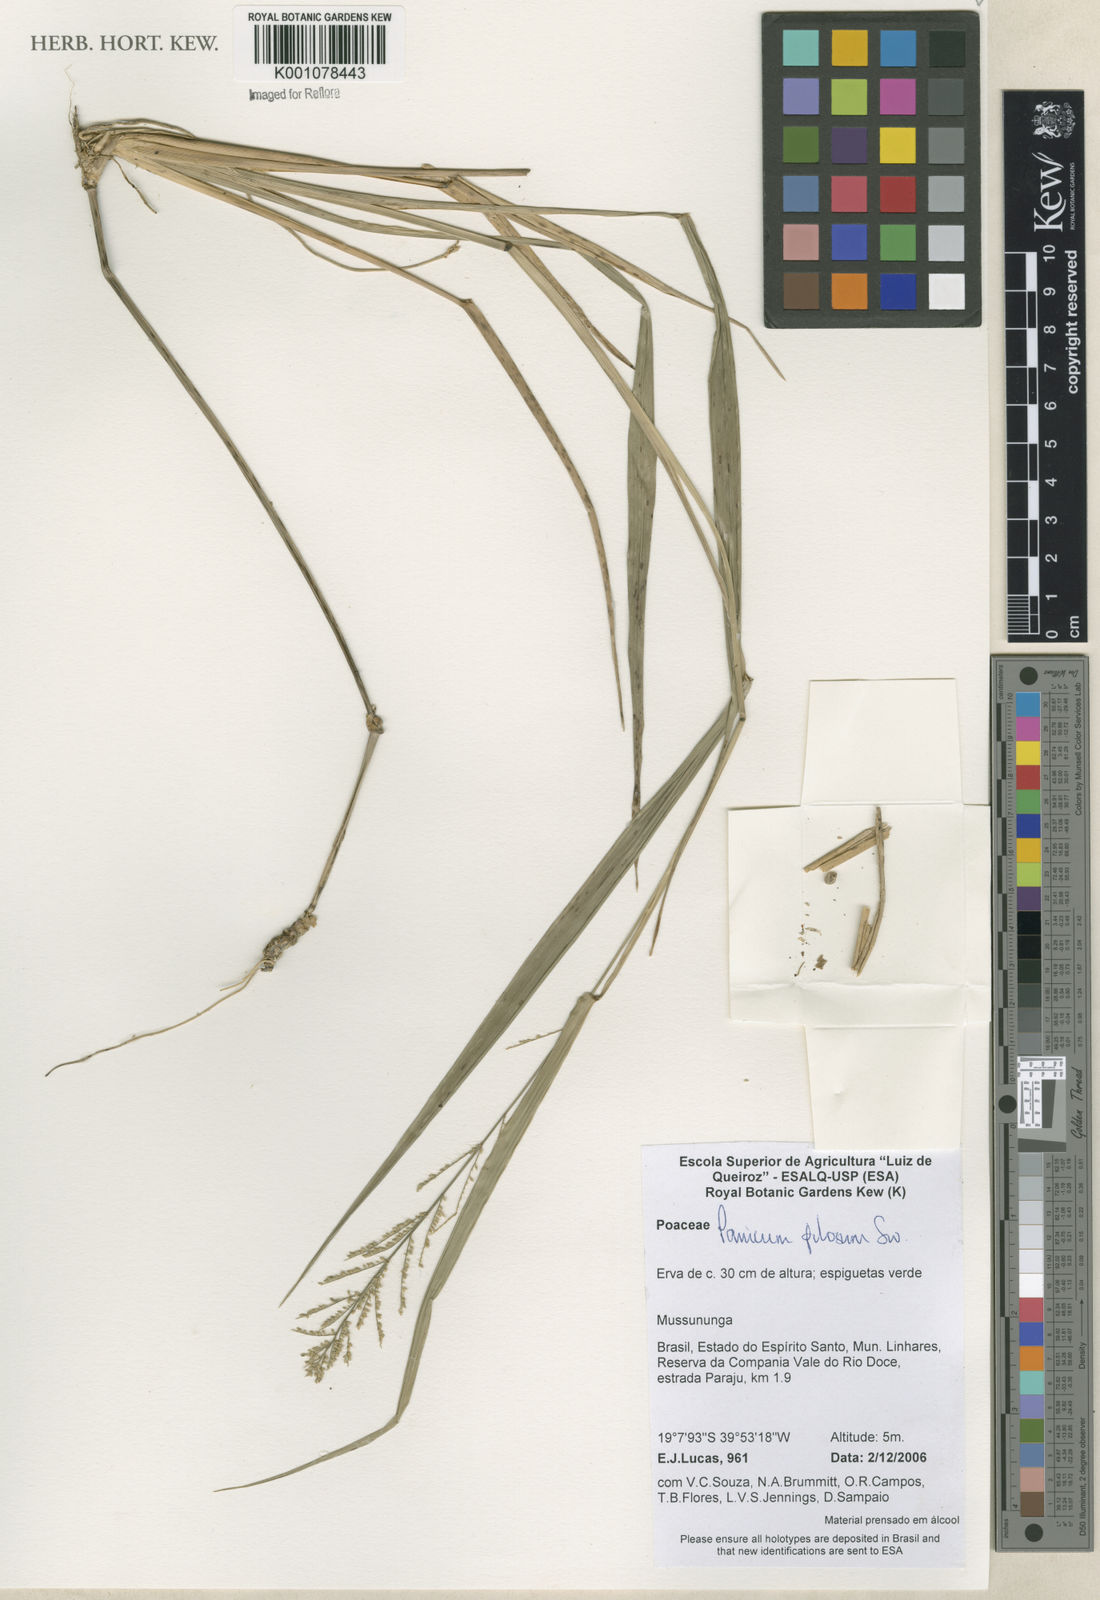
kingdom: Plantae
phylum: Tracheophyta
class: Liliopsida
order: Poales
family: Poaceae
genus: Rugoloa
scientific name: Rugoloa pilosa
